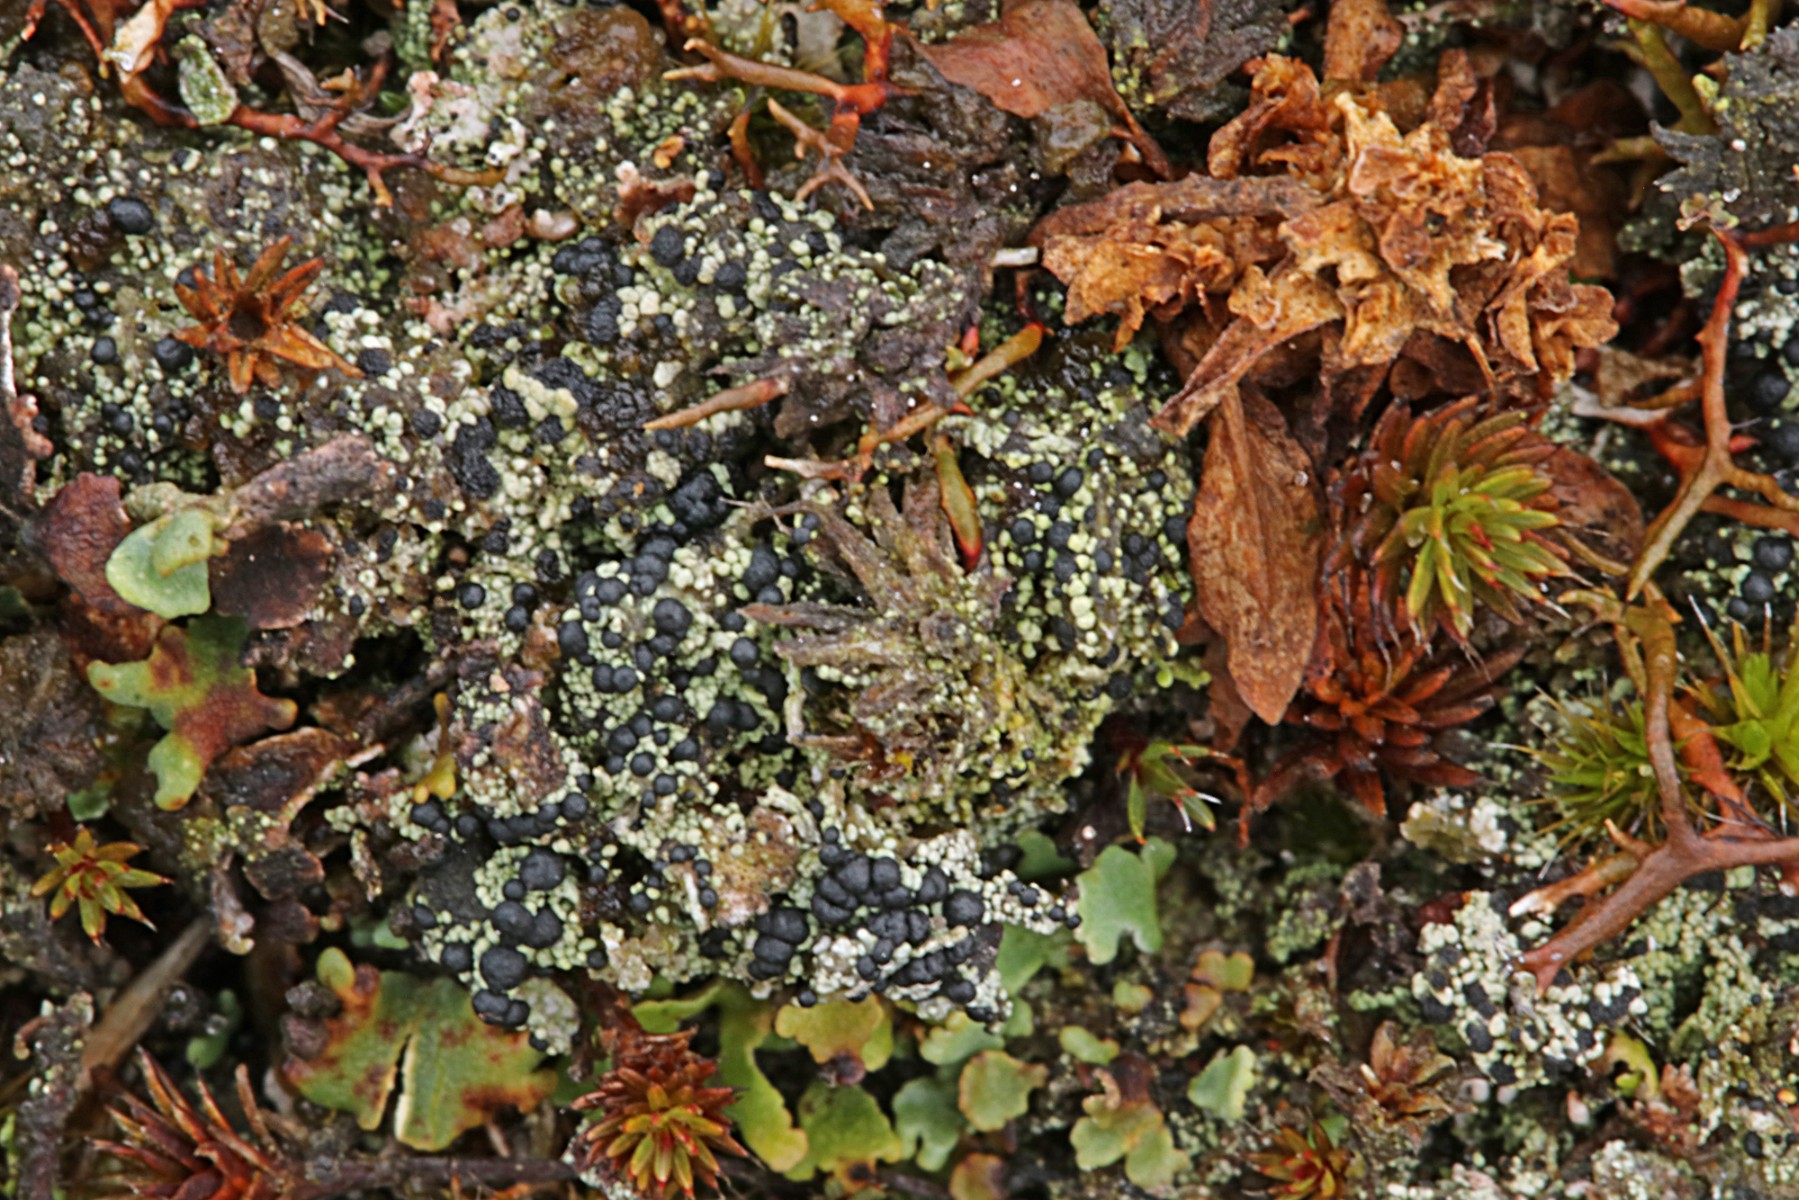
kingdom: Fungi
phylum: Ascomycota
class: Lecanoromycetes
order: Lecanorales
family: Byssolomataceae
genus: Micarea
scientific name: Micarea lignaria
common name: tørve-knaplav
